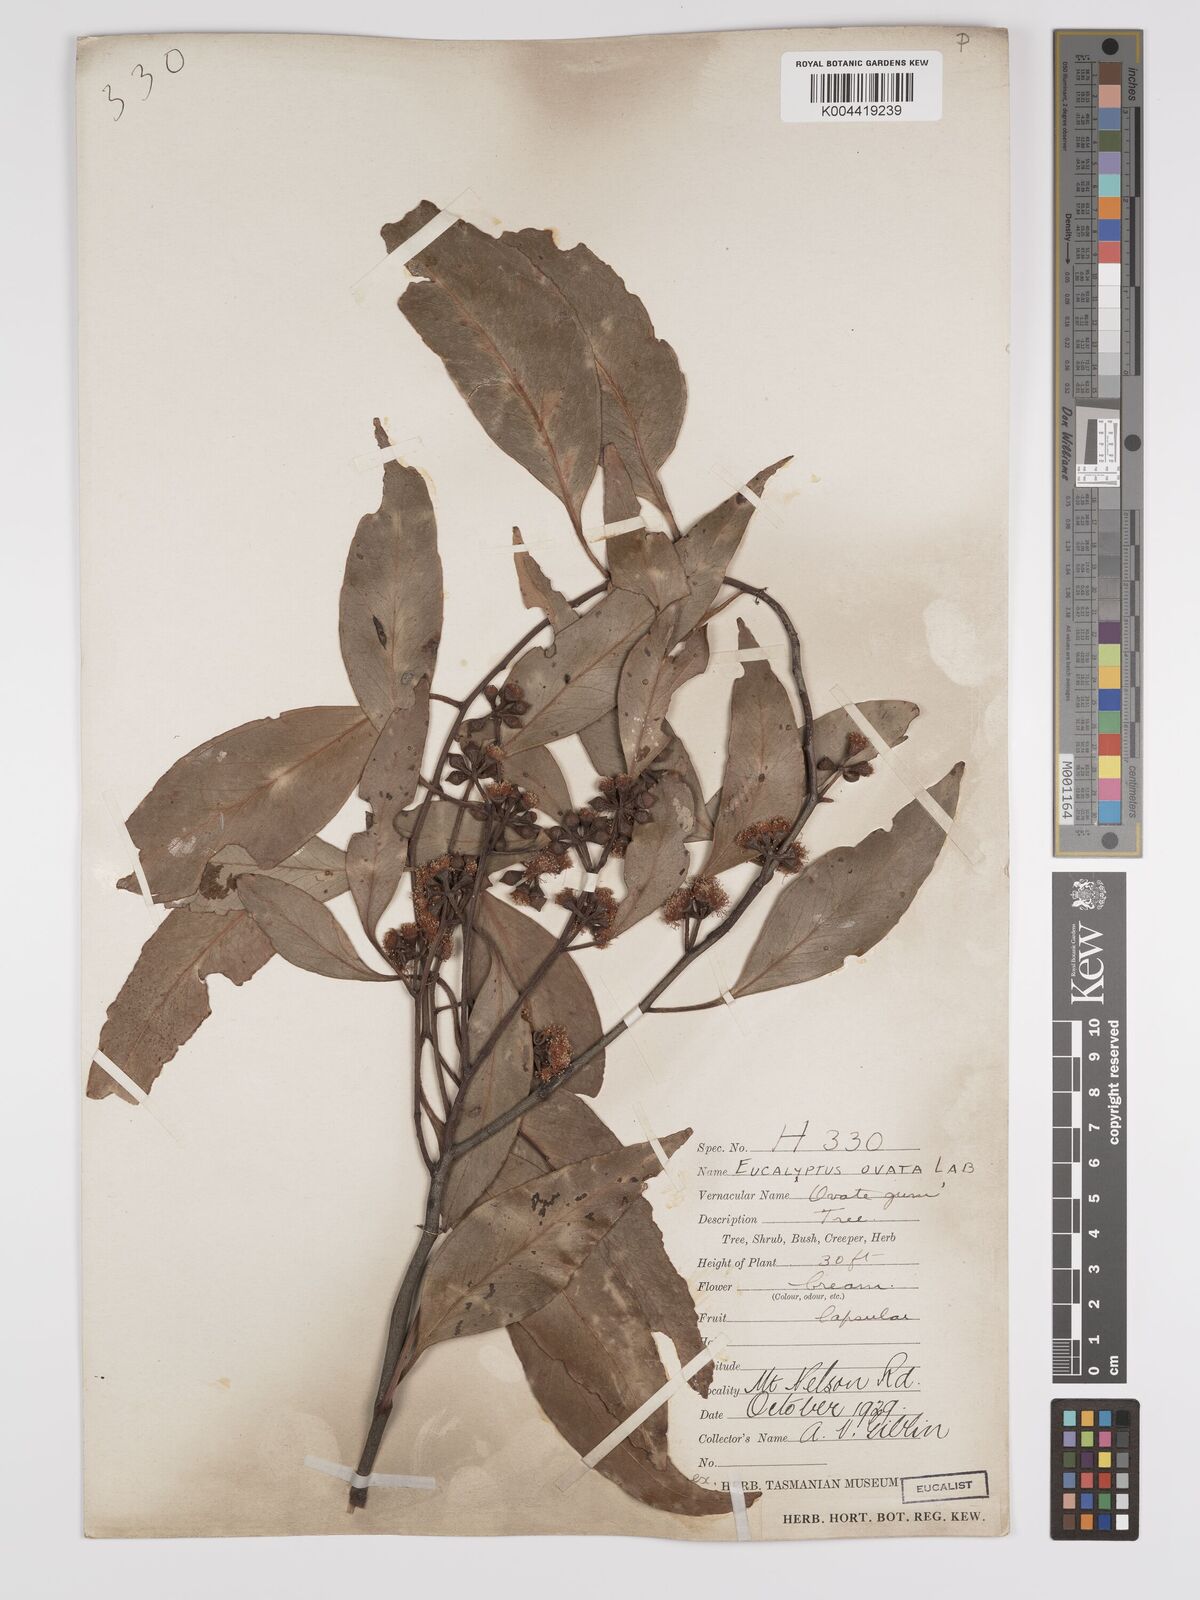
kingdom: Plantae
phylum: Tracheophyta
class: Magnoliopsida
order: Myrtales
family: Myrtaceae
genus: Eucalyptus
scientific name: Eucalyptus ovata
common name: Black-gum
